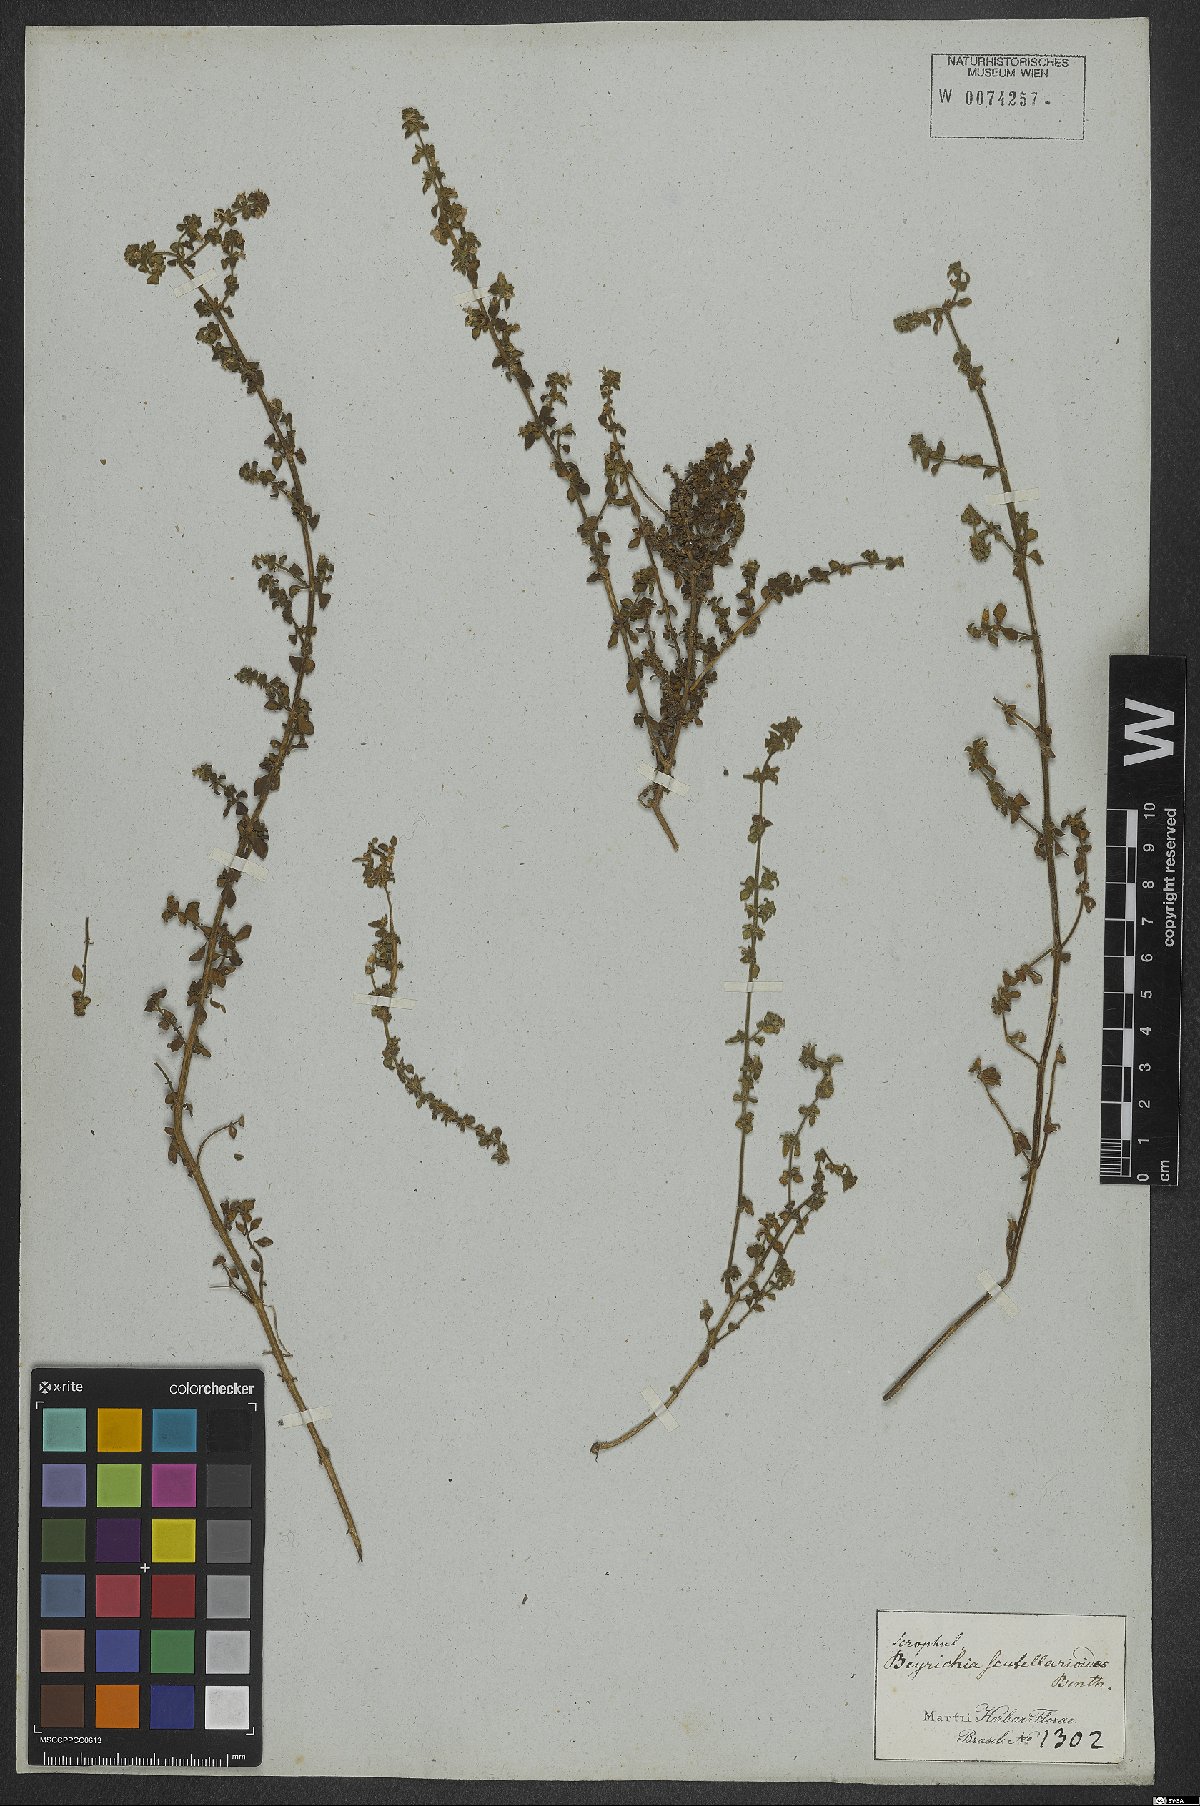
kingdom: Plantae
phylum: Tracheophyta
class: Magnoliopsida
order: Lamiales
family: Plantaginaceae
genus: Matourea
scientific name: Matourea scutellarioides
